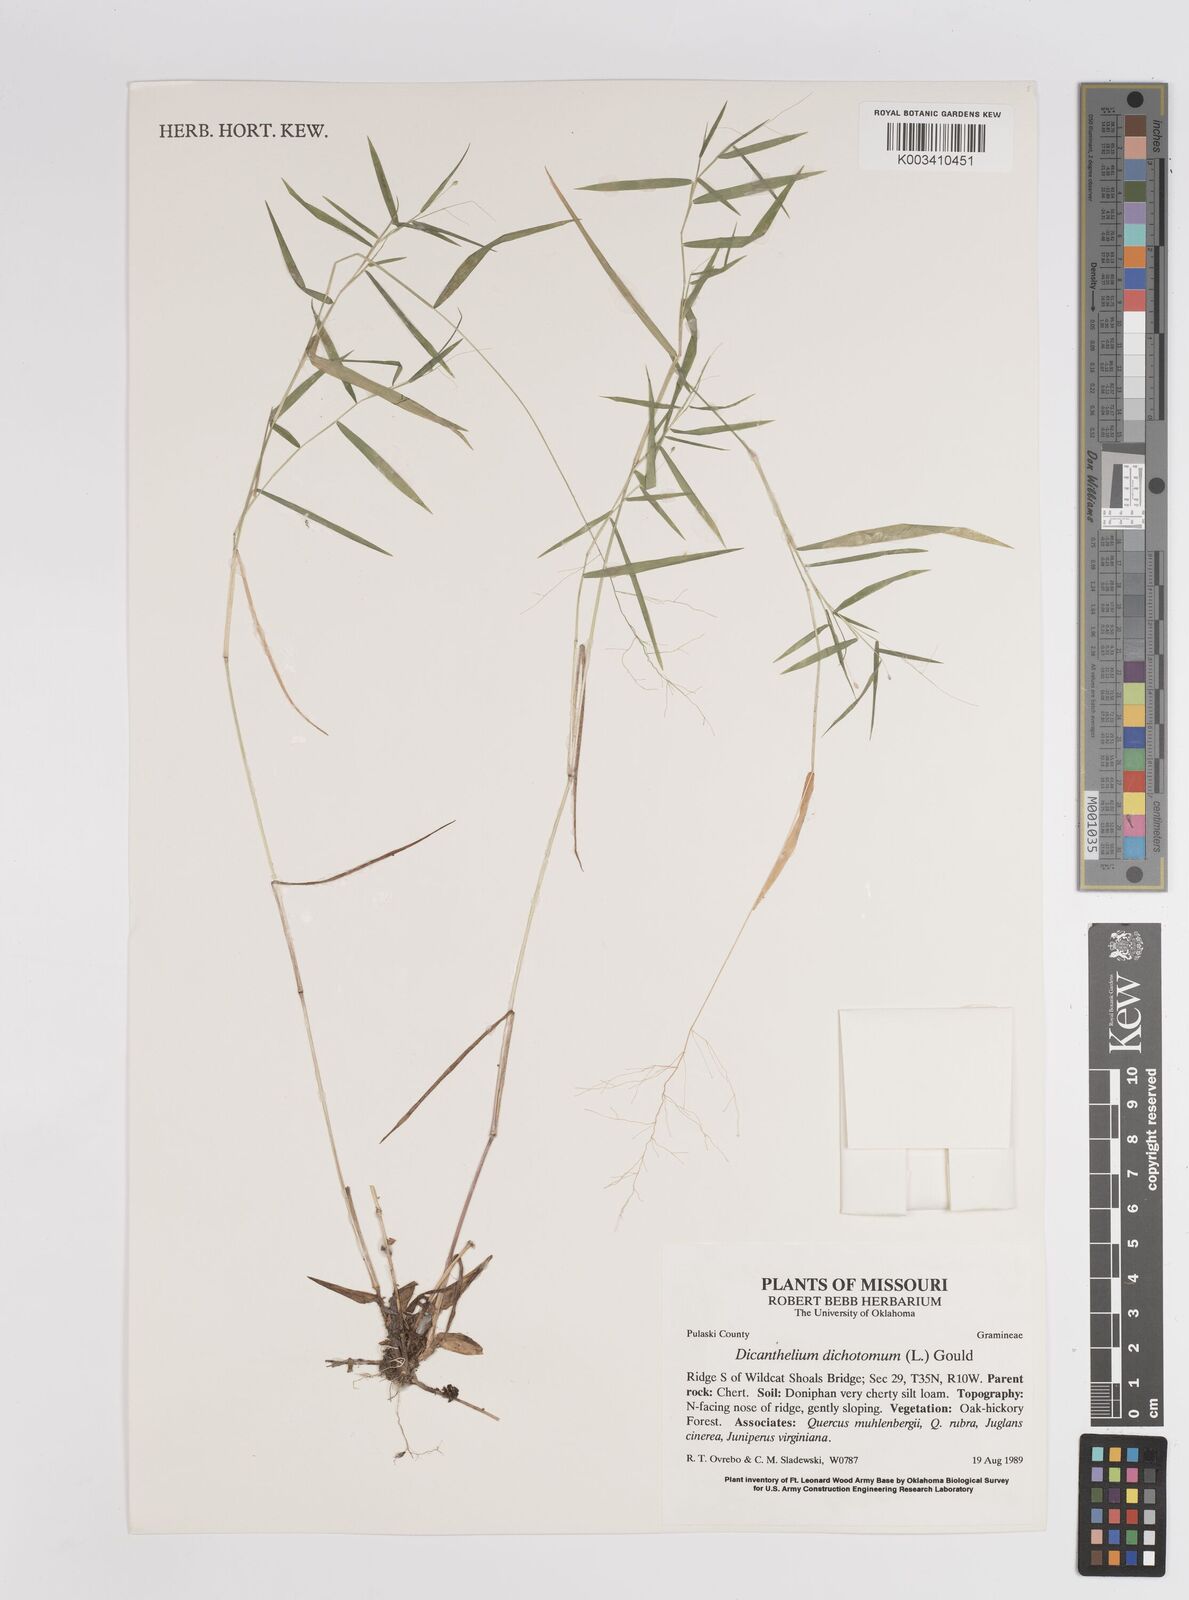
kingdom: Plantae
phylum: Tracheophyta
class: Liliopsida
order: Poales
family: Poaceae
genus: Dichanthelium
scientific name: Dichanthelium polyanthes
